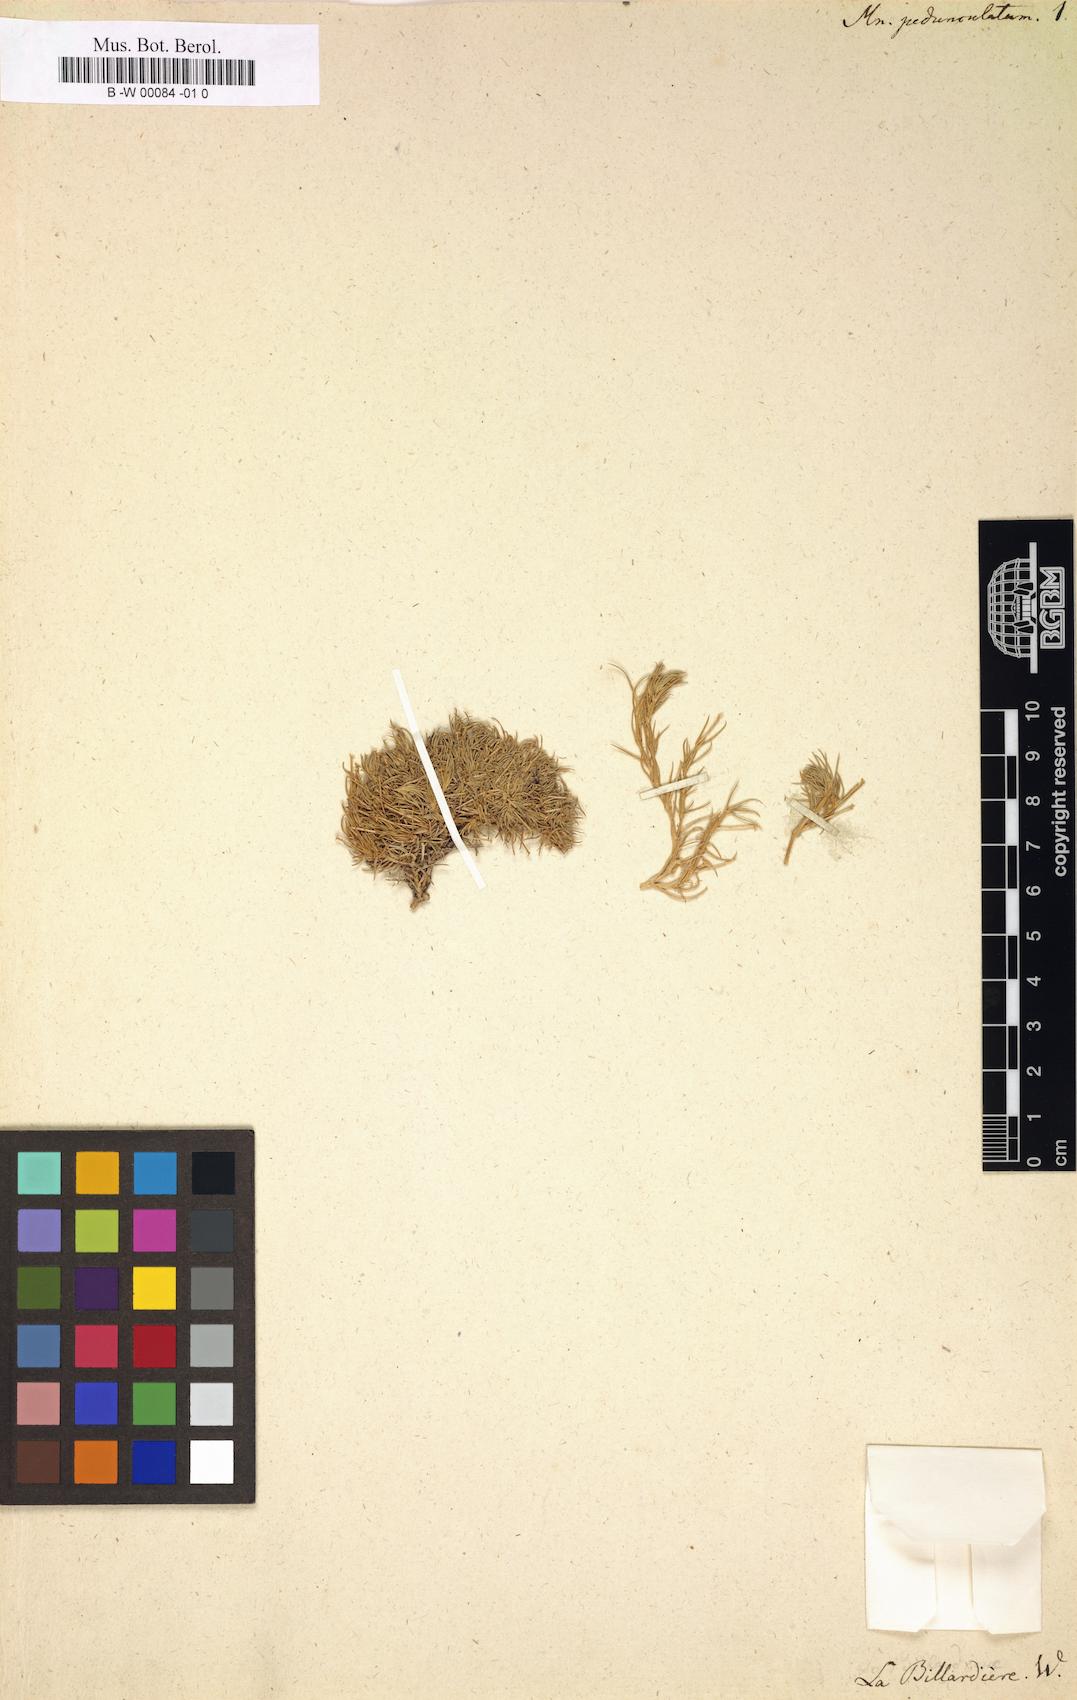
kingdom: Plantae
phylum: Tracheophyta
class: Magnoliopsida
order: Caryophyllales
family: Caryophyllaceae
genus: Scleranthus
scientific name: Scleranthus biflorus
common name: Two-flower knawel
